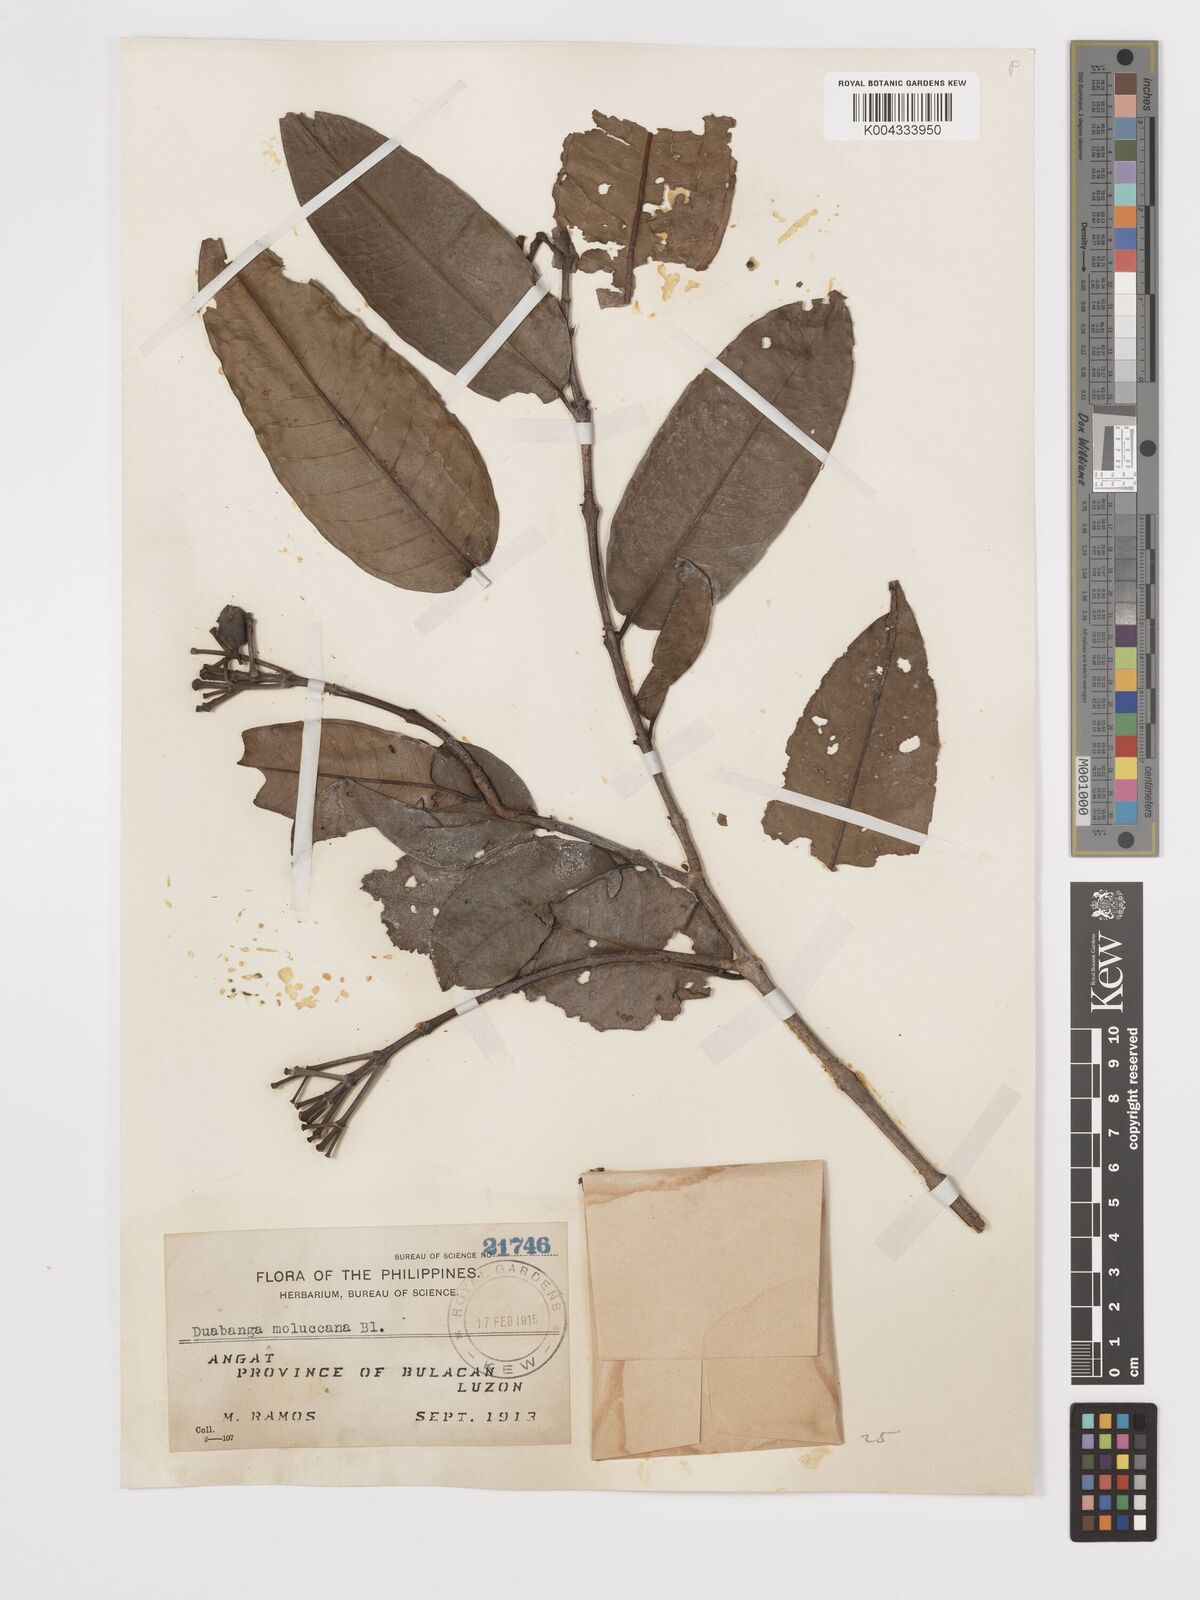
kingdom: Plantae
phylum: Tracheophyta
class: Magnoliopsida
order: Myrtales
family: Lythraceae
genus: Duabanga
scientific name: Duabanga moluccana
